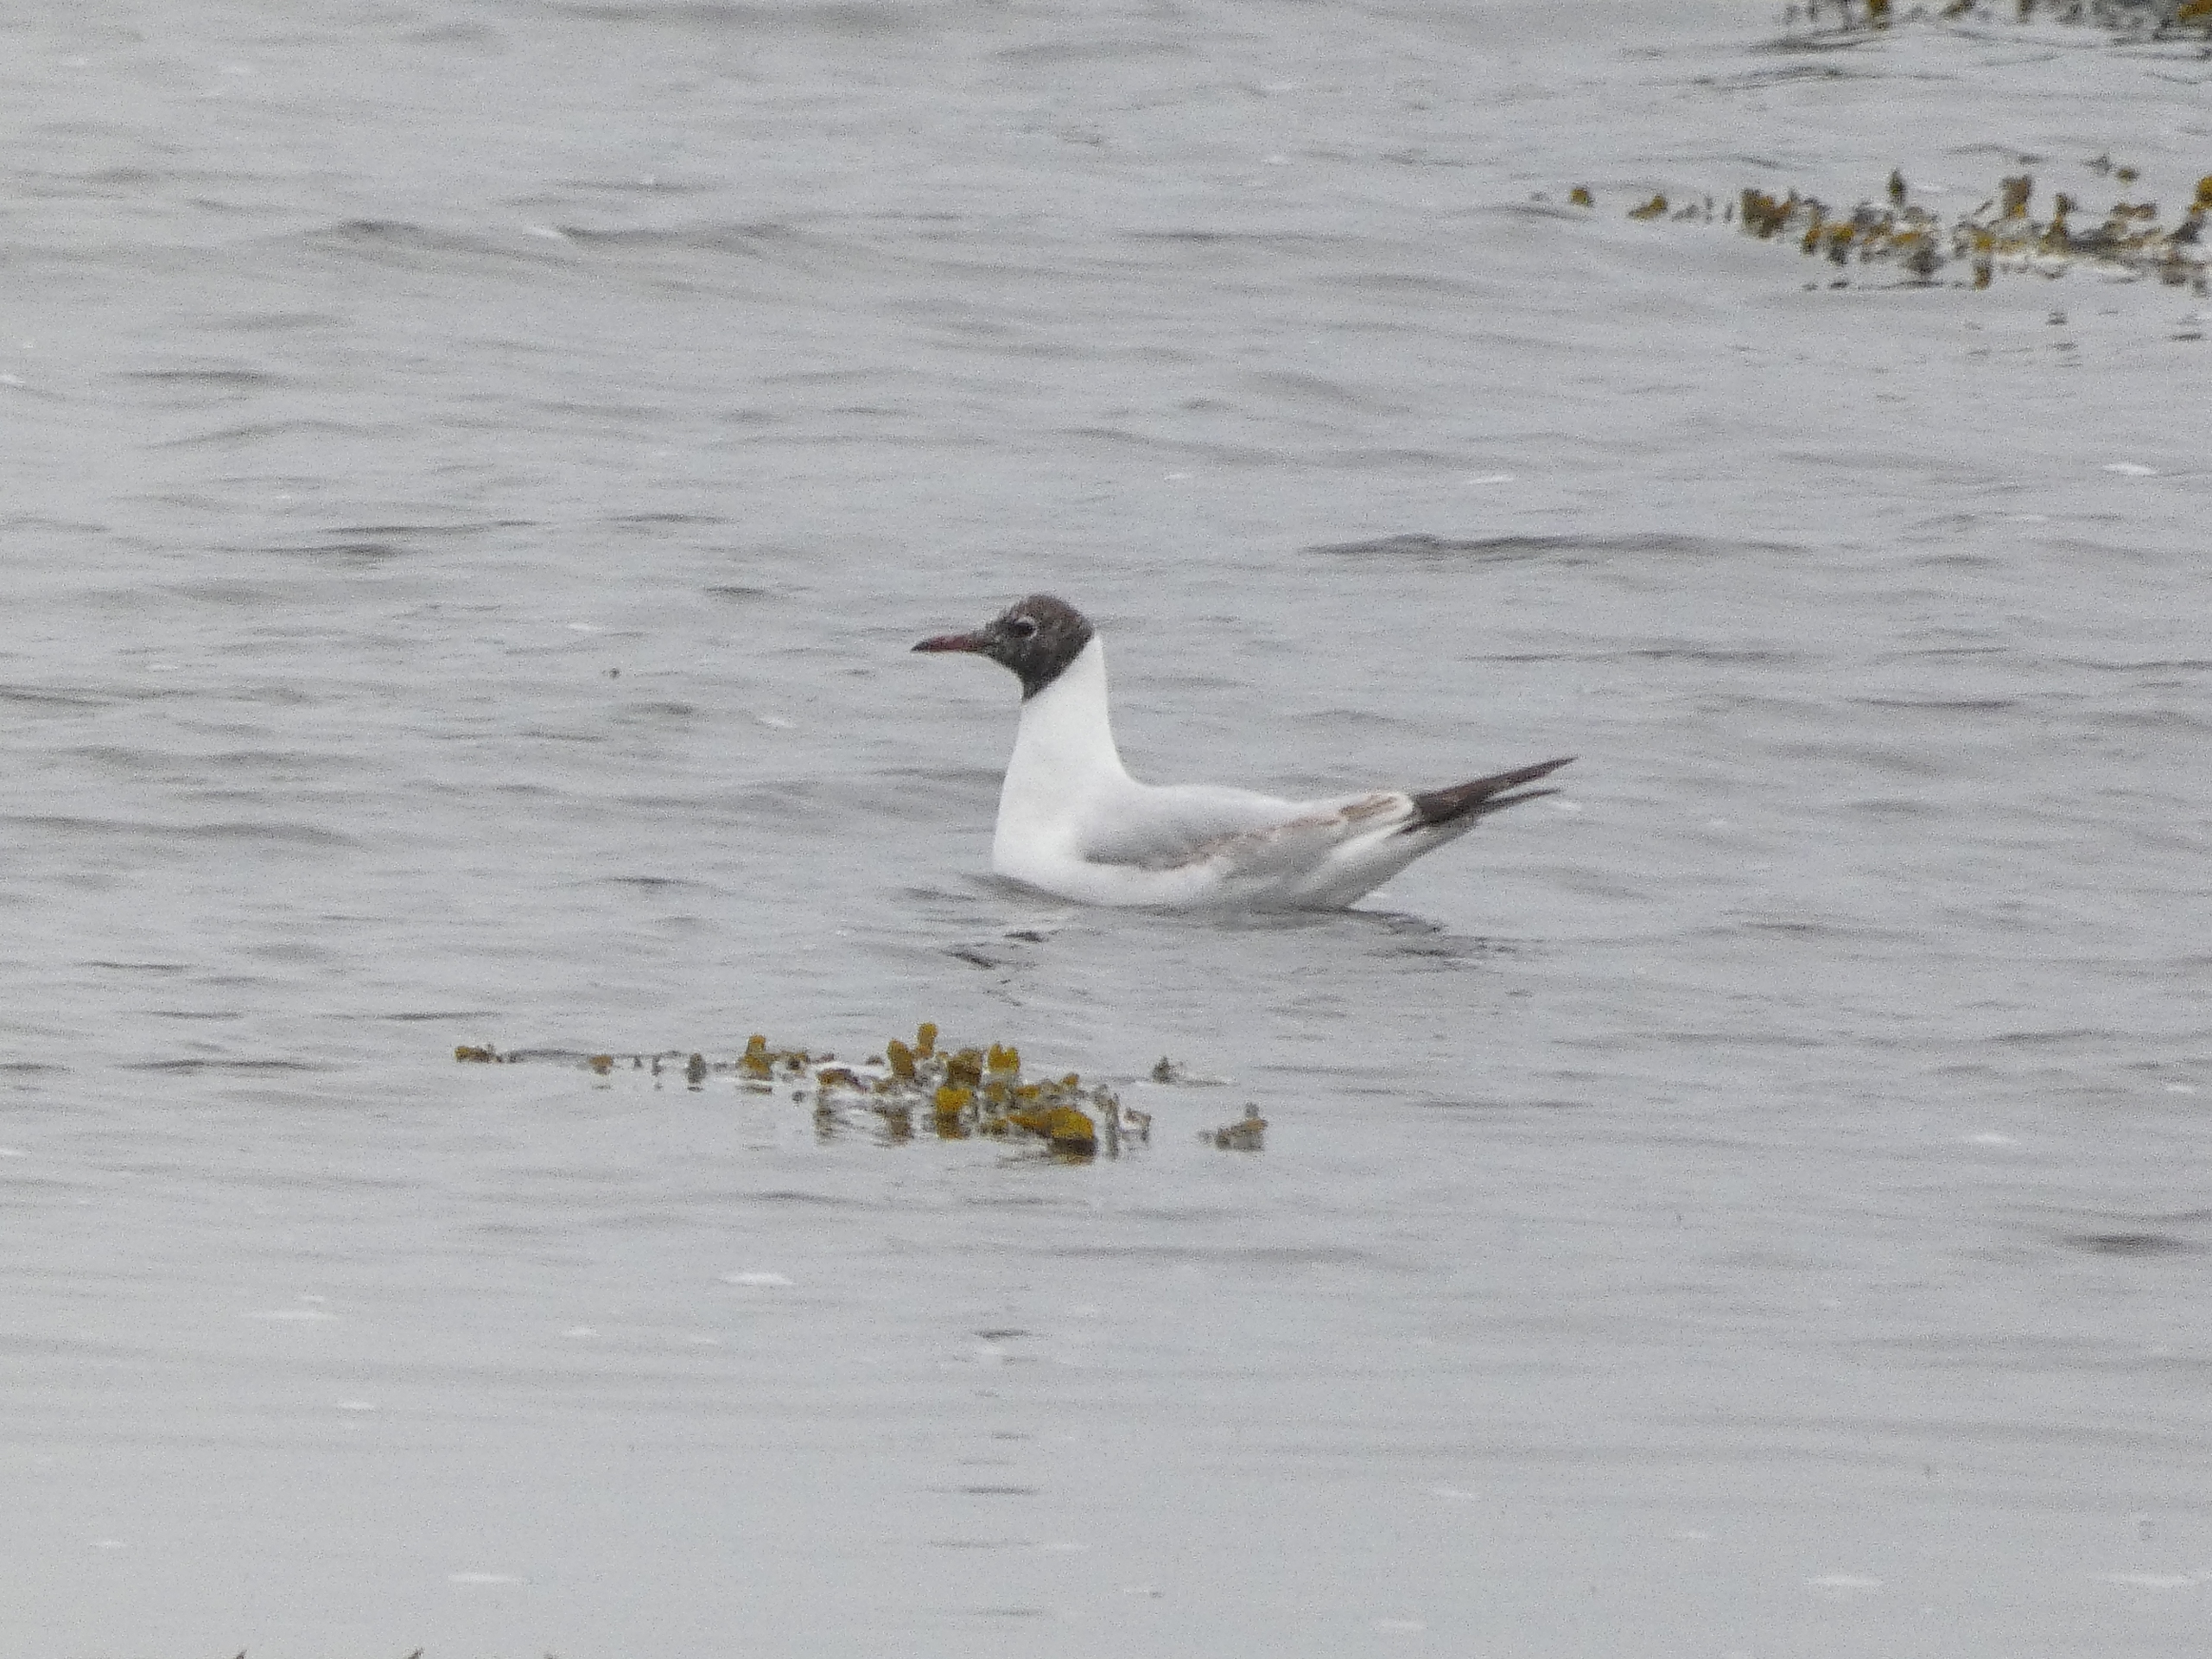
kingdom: Animalia
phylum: Chordata
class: Aves
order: Charadriiformes
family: Laridae
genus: Chroicocephalus
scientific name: Chroicocephalus ridibundus
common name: Hættemåge
